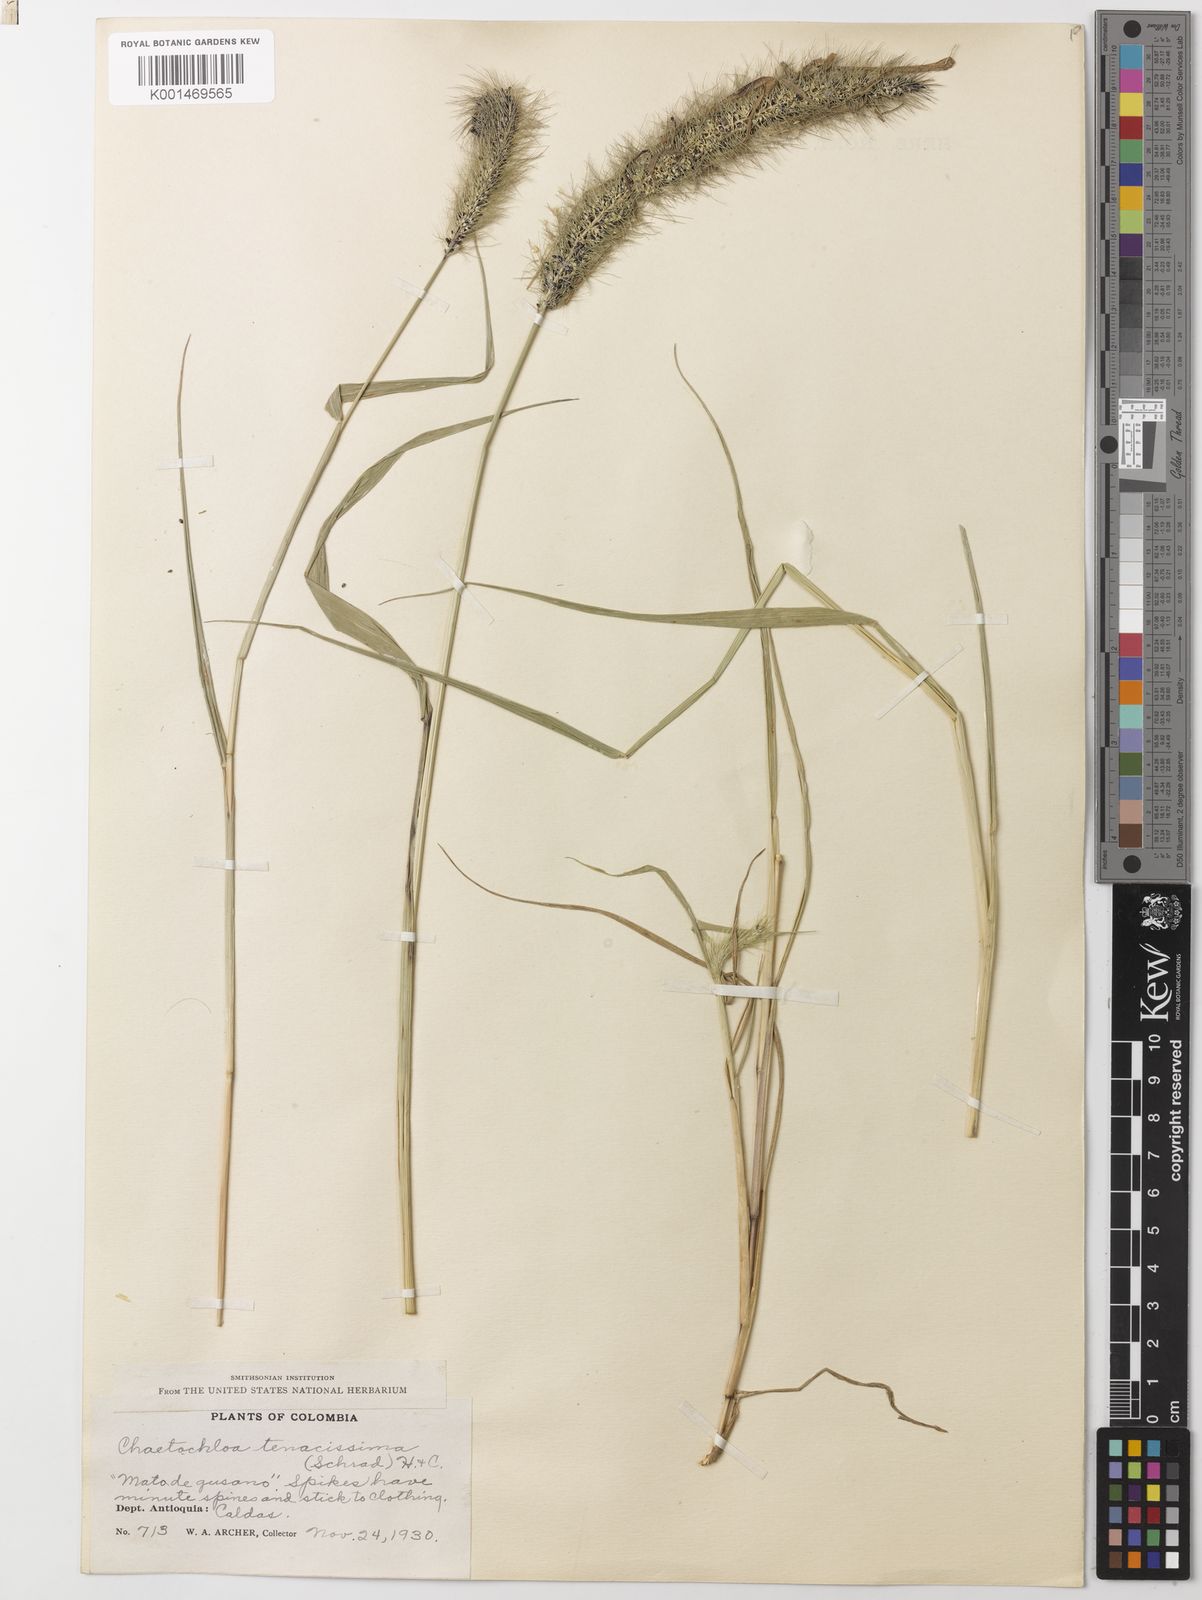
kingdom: Plantae
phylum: Tracheophyta
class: Liliopsida
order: Poales
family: Poaceae
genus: Setaria
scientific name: Setaria tenacissima
